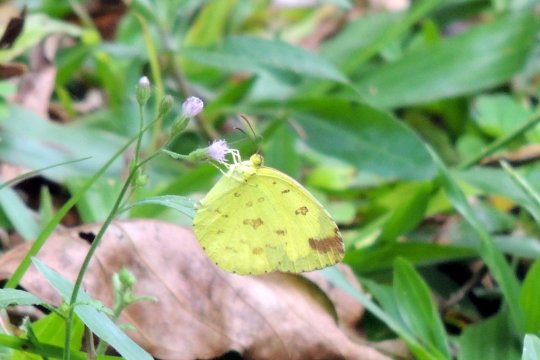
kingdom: Animalia
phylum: Arthropoda
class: Insecta
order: Lepidoptera
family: Pieridae
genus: Eurema
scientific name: Eurema hecabe
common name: Common Grass Yellow
